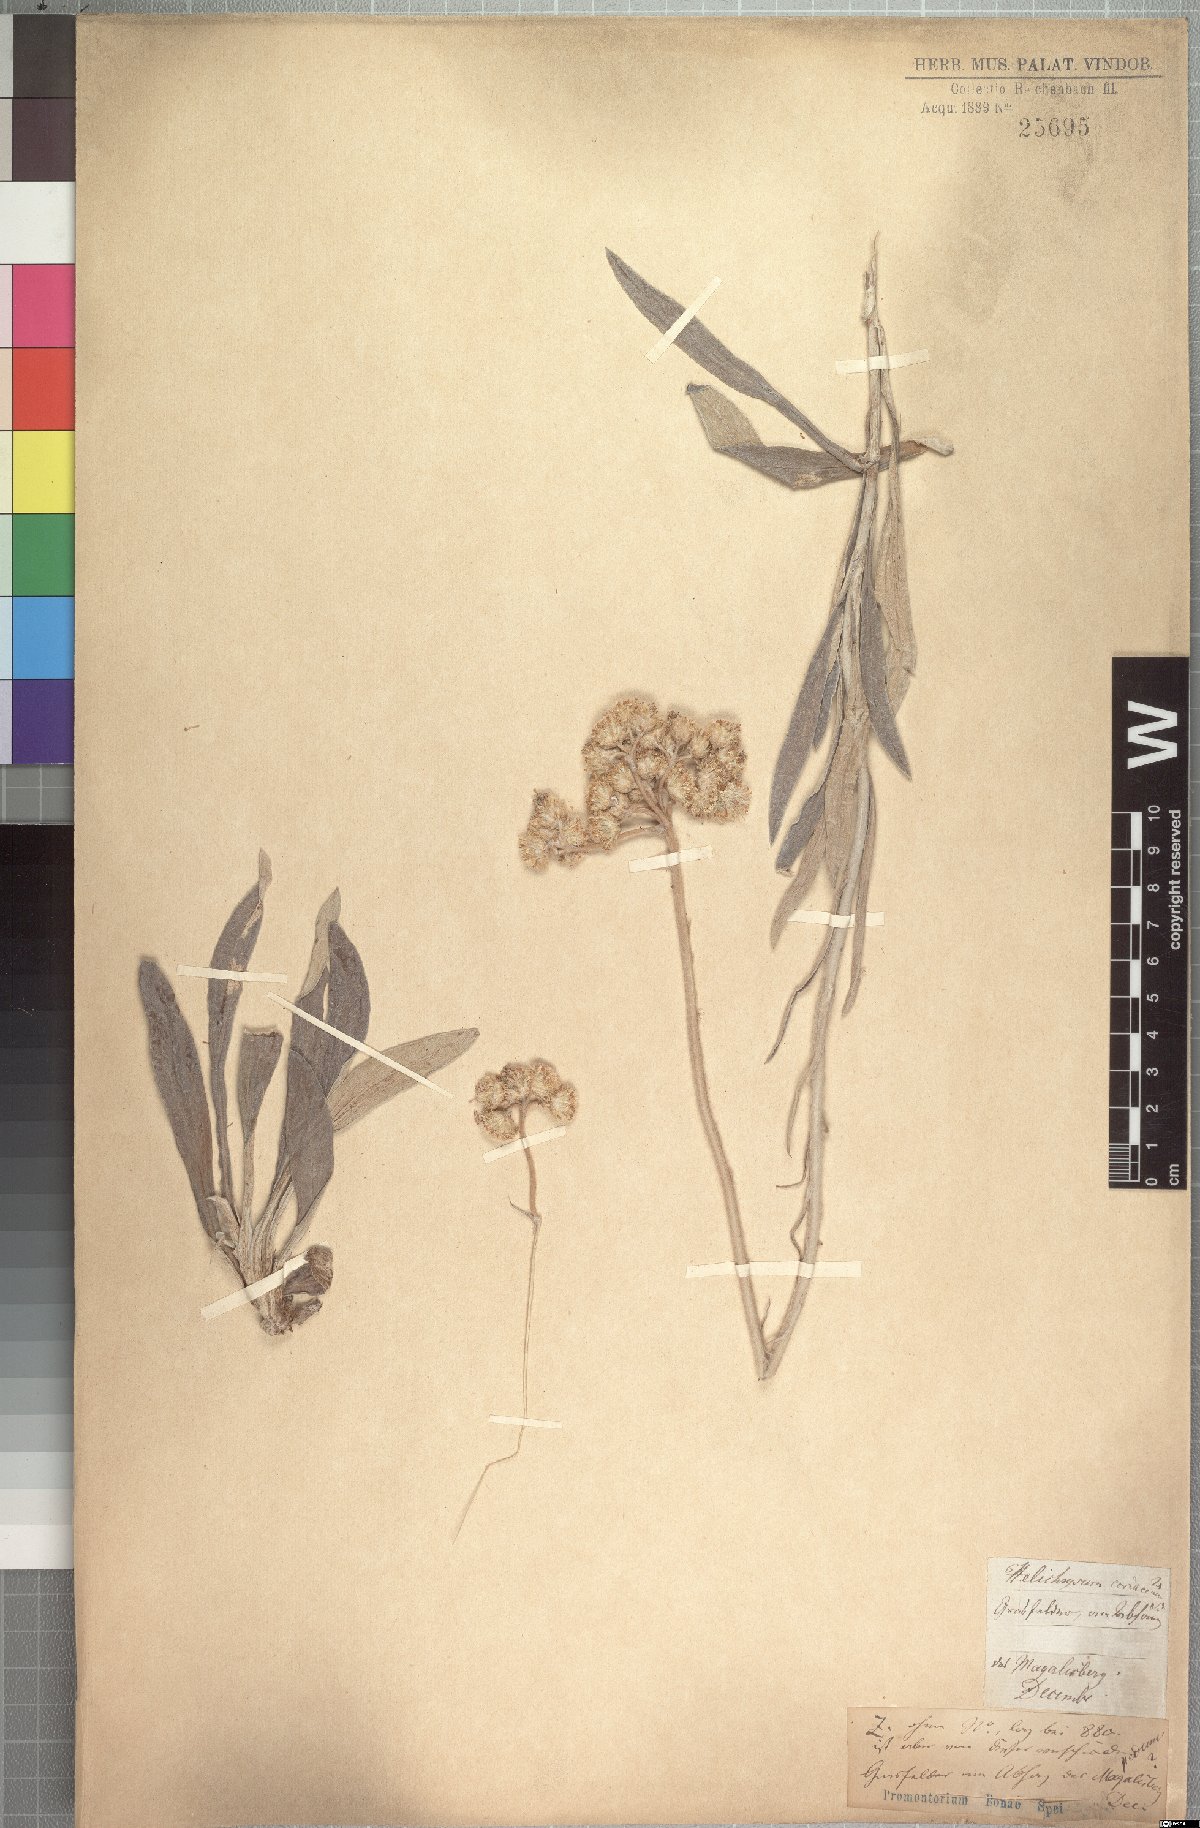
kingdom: Plantae
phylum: Tracheophyta
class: Magnoliopsida
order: Asterales
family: Asteraceae
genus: Helichrysum
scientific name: Helichrysum nudifolium
